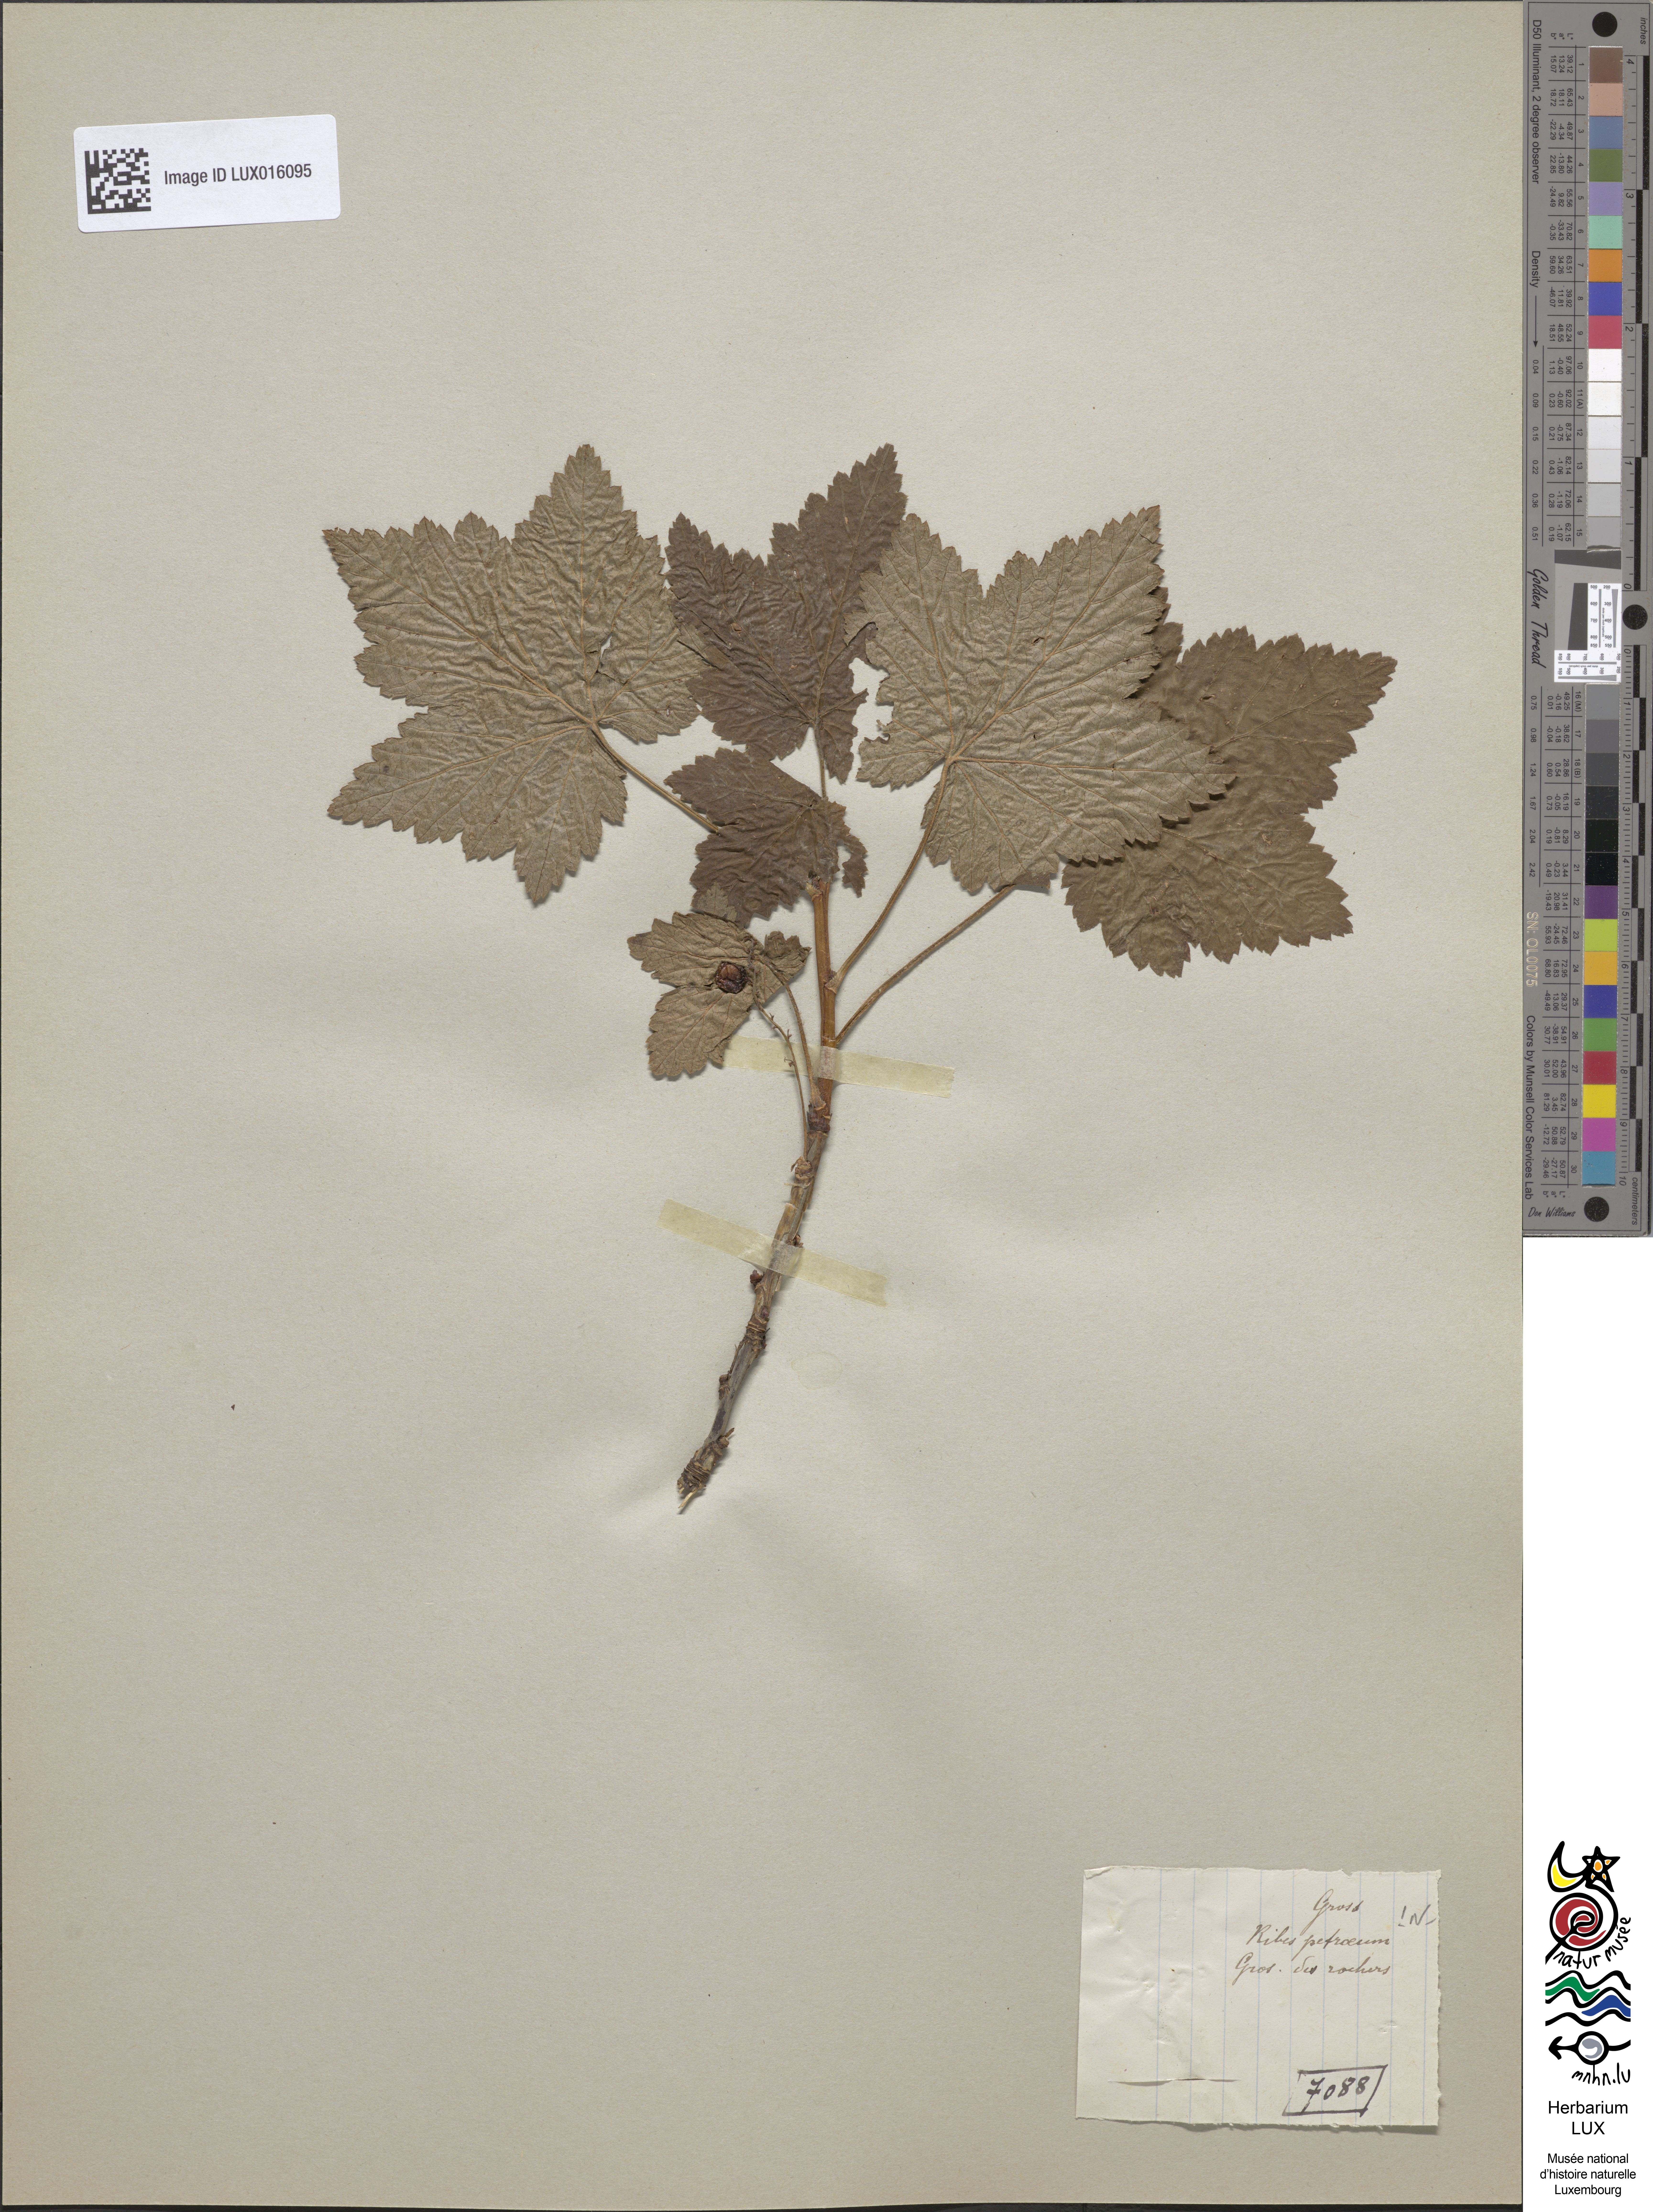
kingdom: Plantae
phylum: Tracheophyta
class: Magnoliopsida
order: Saxifragales
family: Grossulariaceae
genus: Ribes
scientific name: Ribes petraeum
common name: Rock currant
